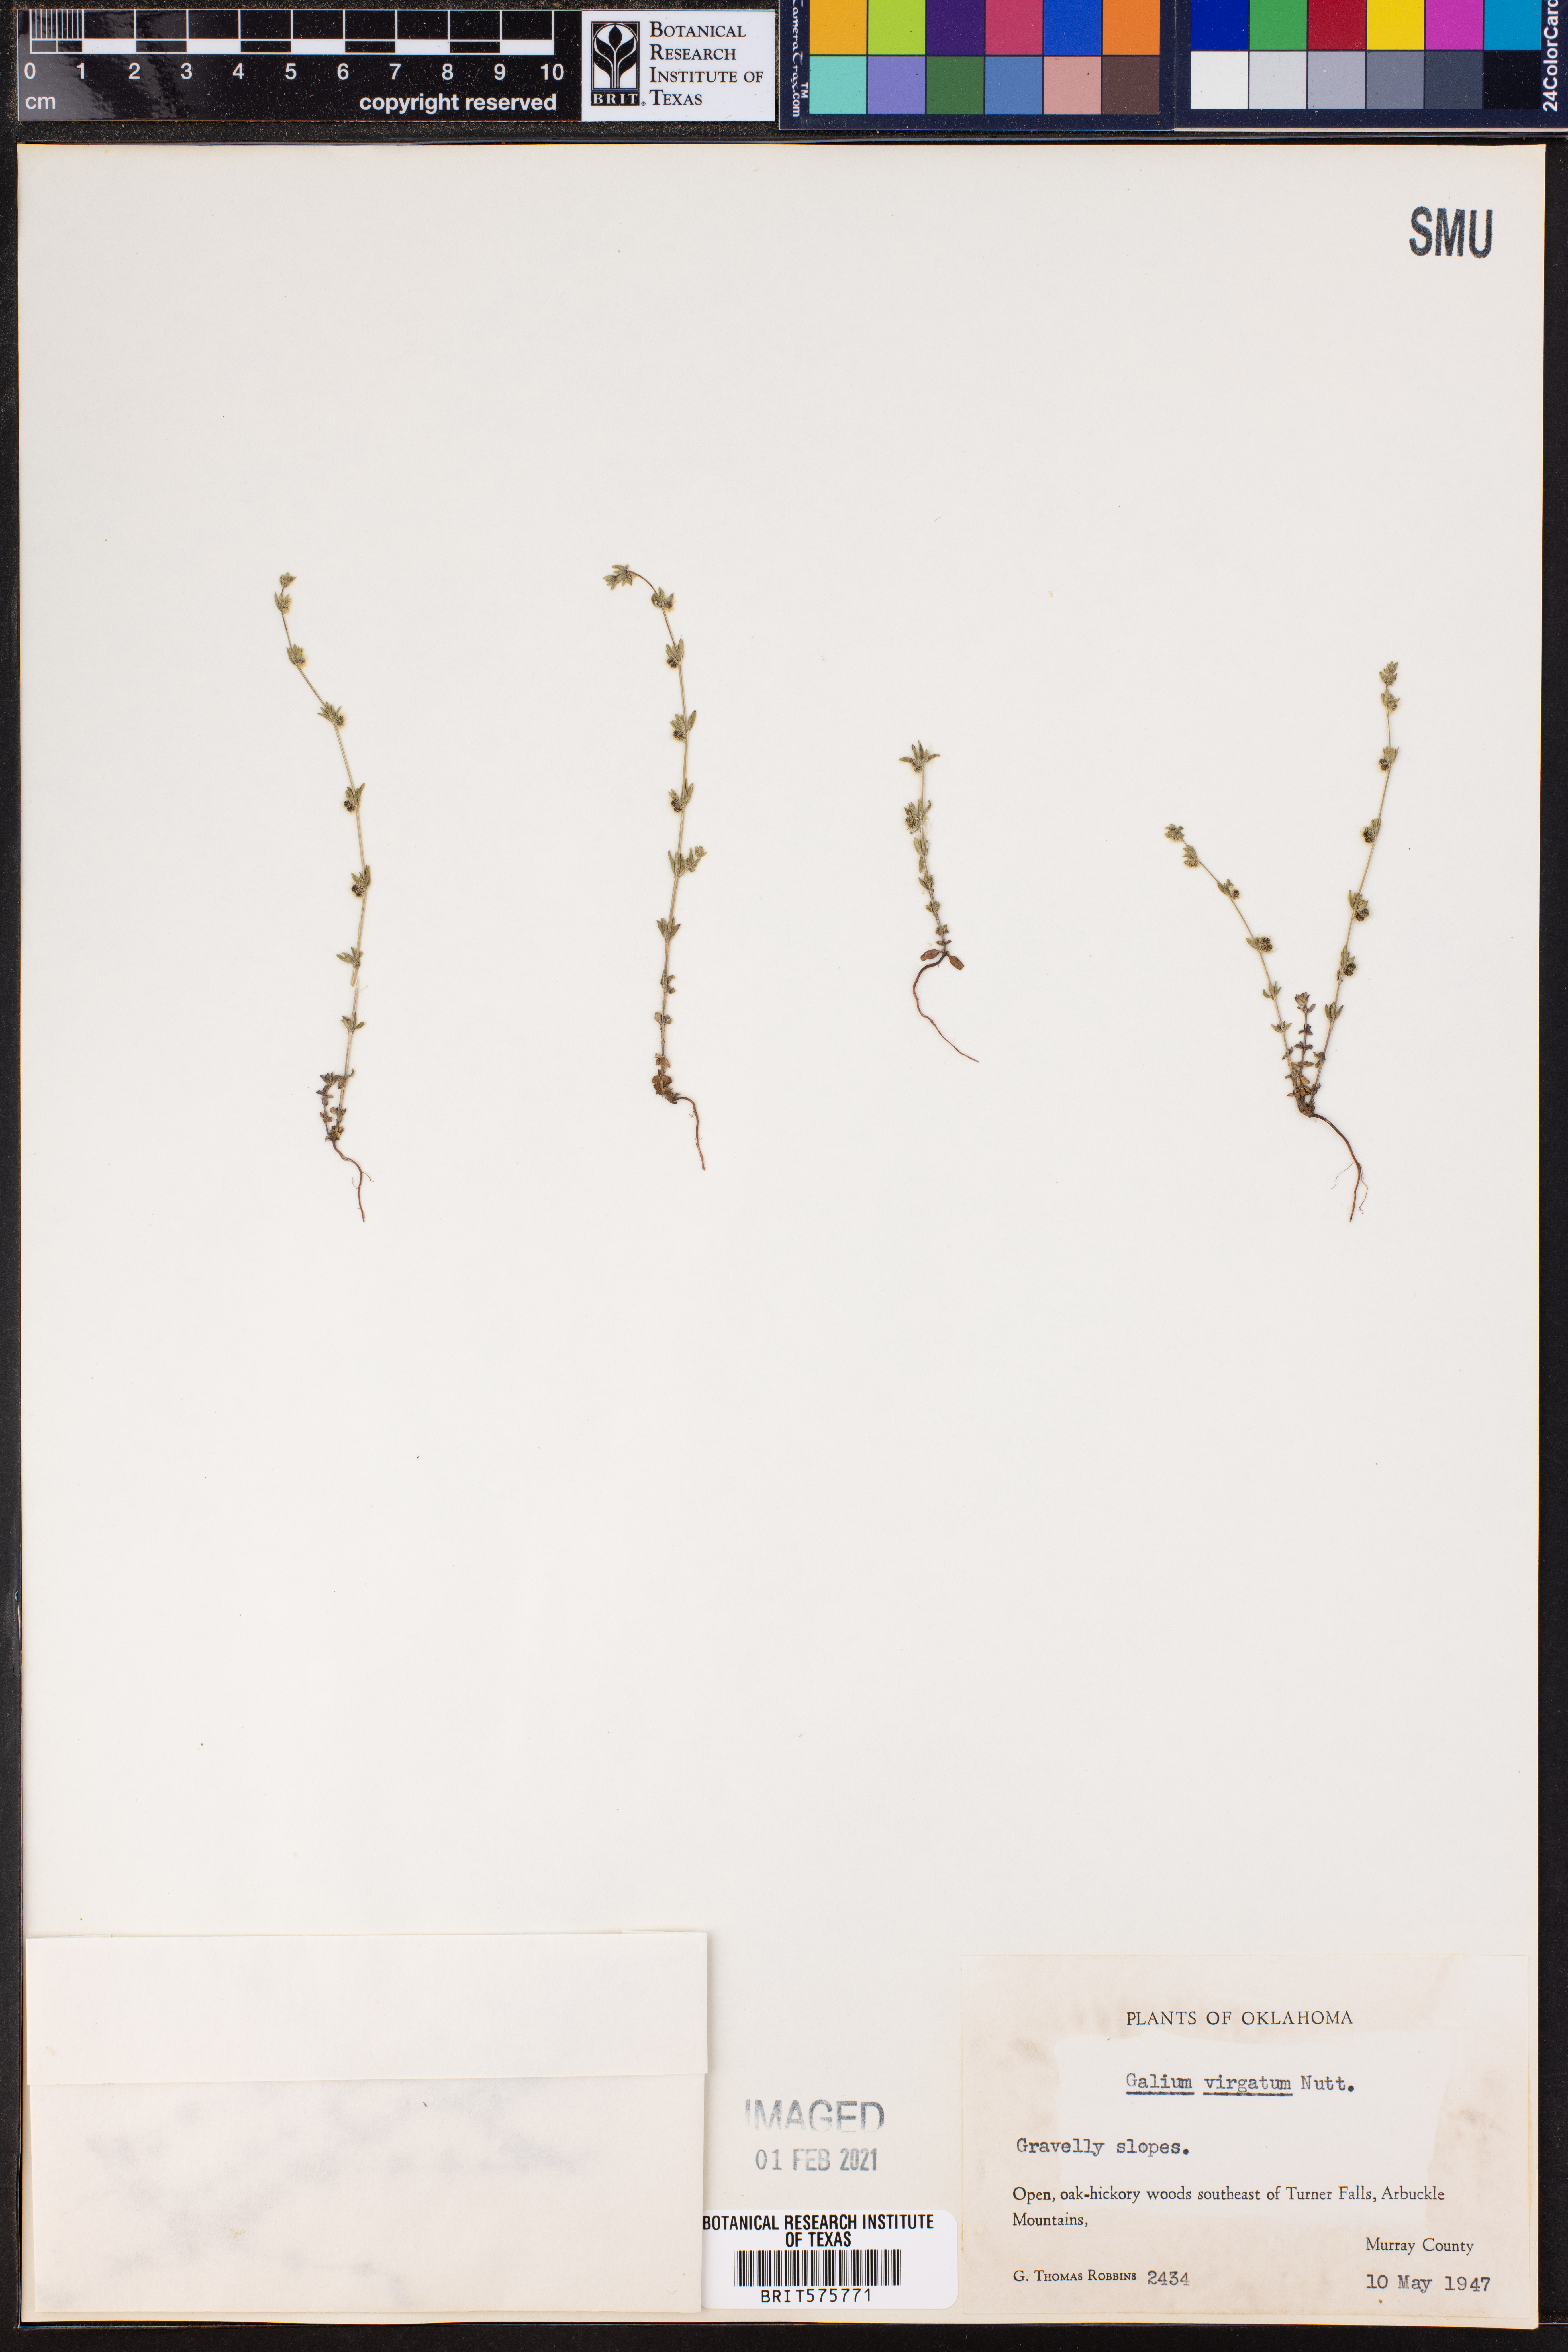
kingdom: Plantae
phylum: Tracheophyta
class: Magnoliopsida
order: Gentianales
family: Rubiaceae
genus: Galium
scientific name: Galium virgatum
